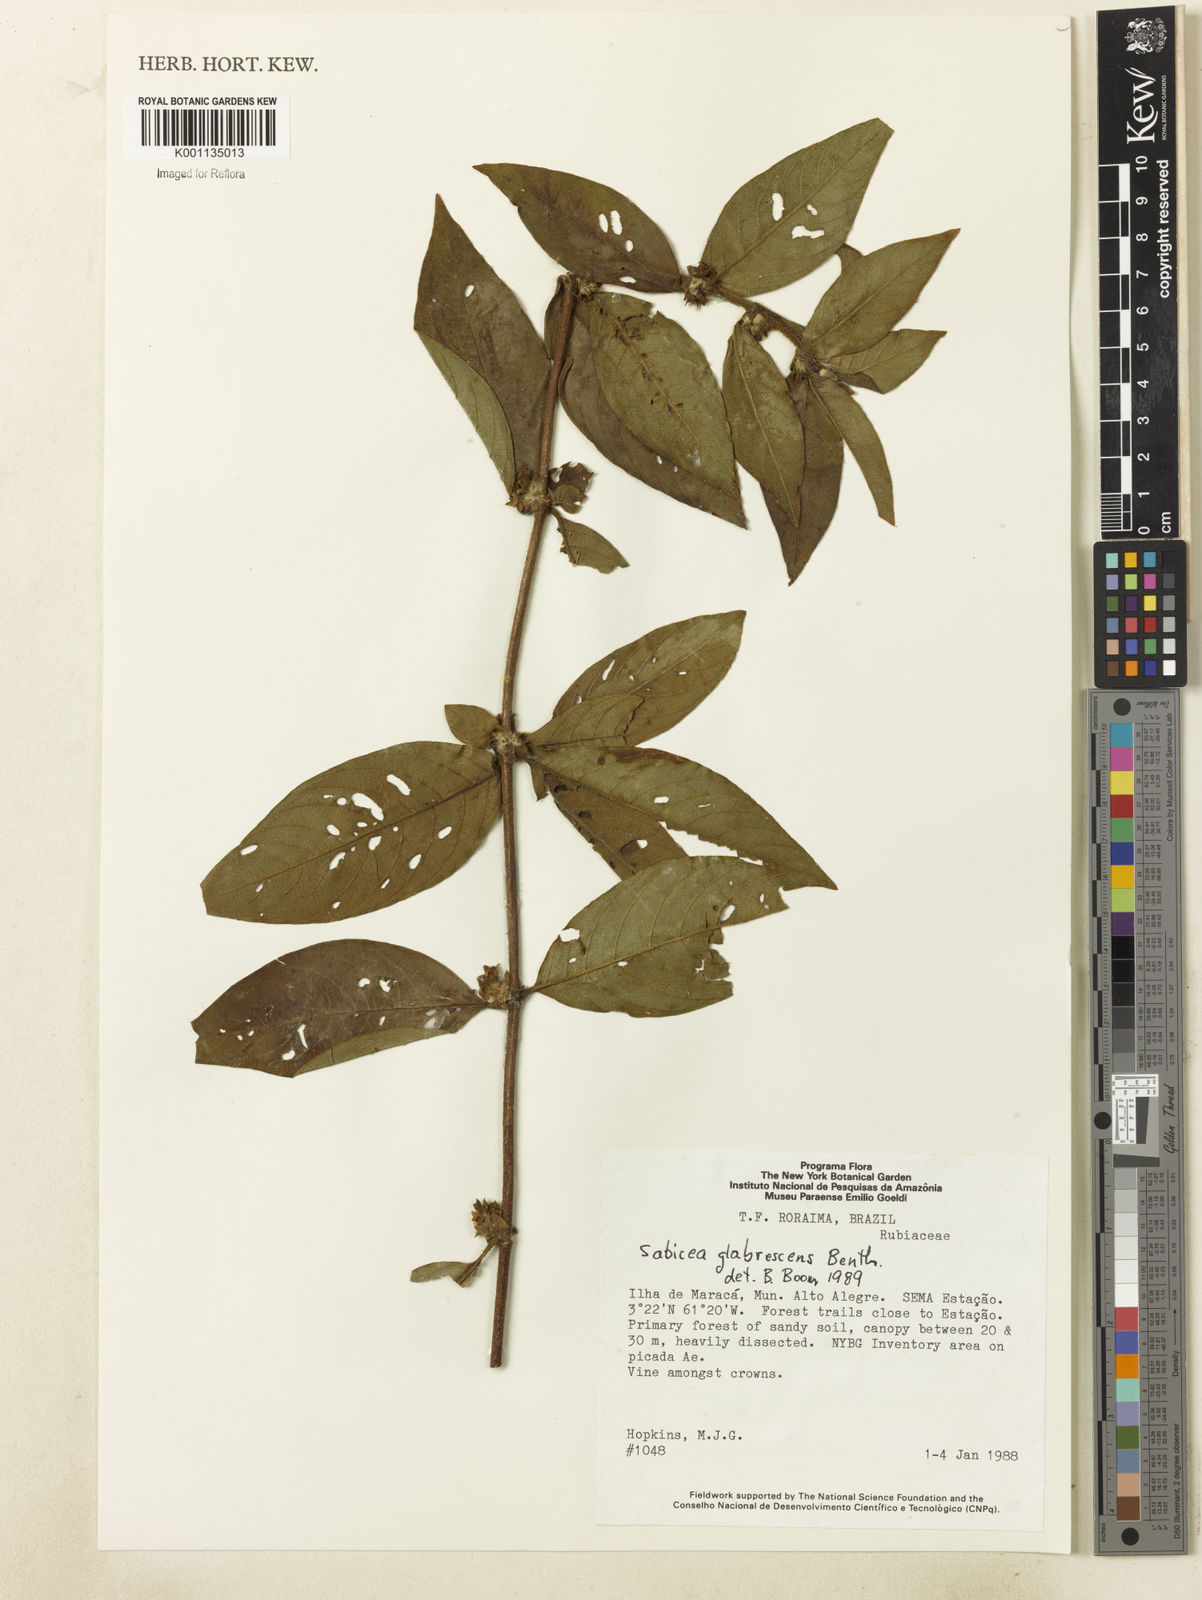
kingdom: Plantae
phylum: Tracheophyta
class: Magnoliopsida
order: Gentianales
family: Rubiaceae
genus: Sabicea
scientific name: Sabicea glabrescens
